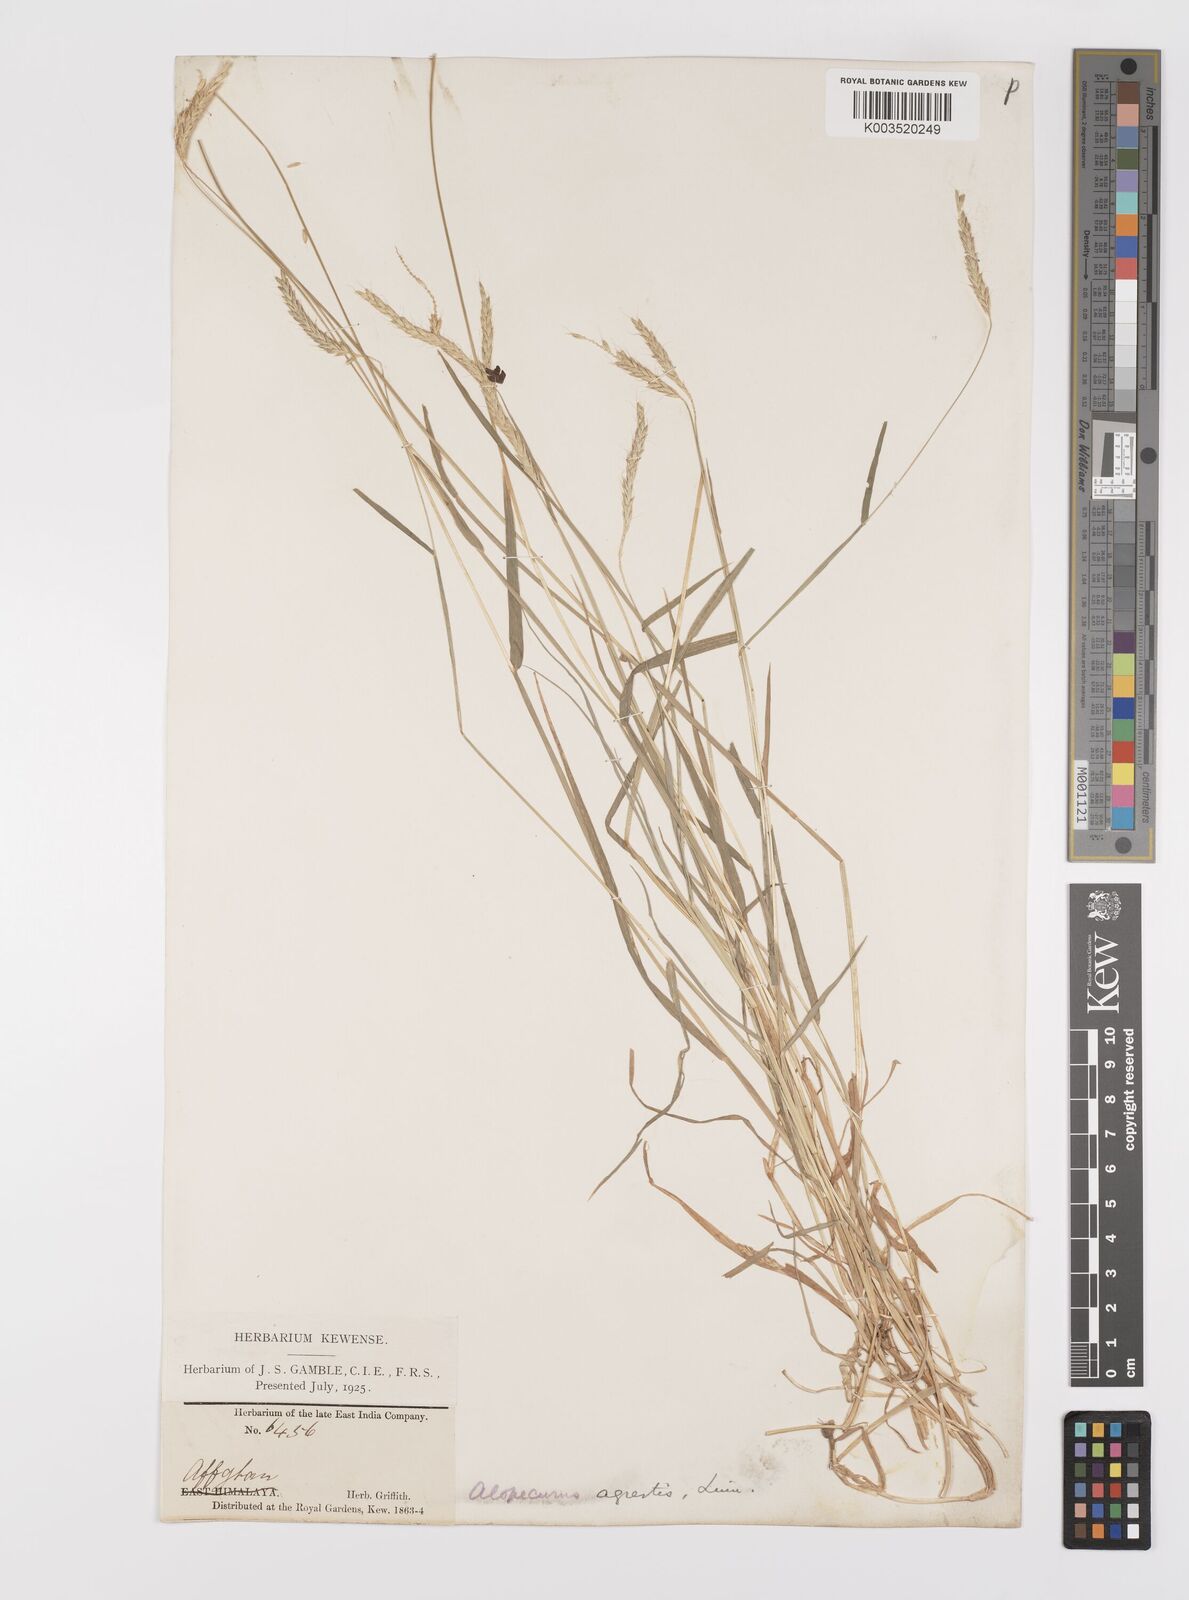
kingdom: Plantae
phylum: Tracheophyta
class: Liliopsida
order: Poales
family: Poaceae
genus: Alopecurus
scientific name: Alopecurus myosuroides
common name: Black-grass
